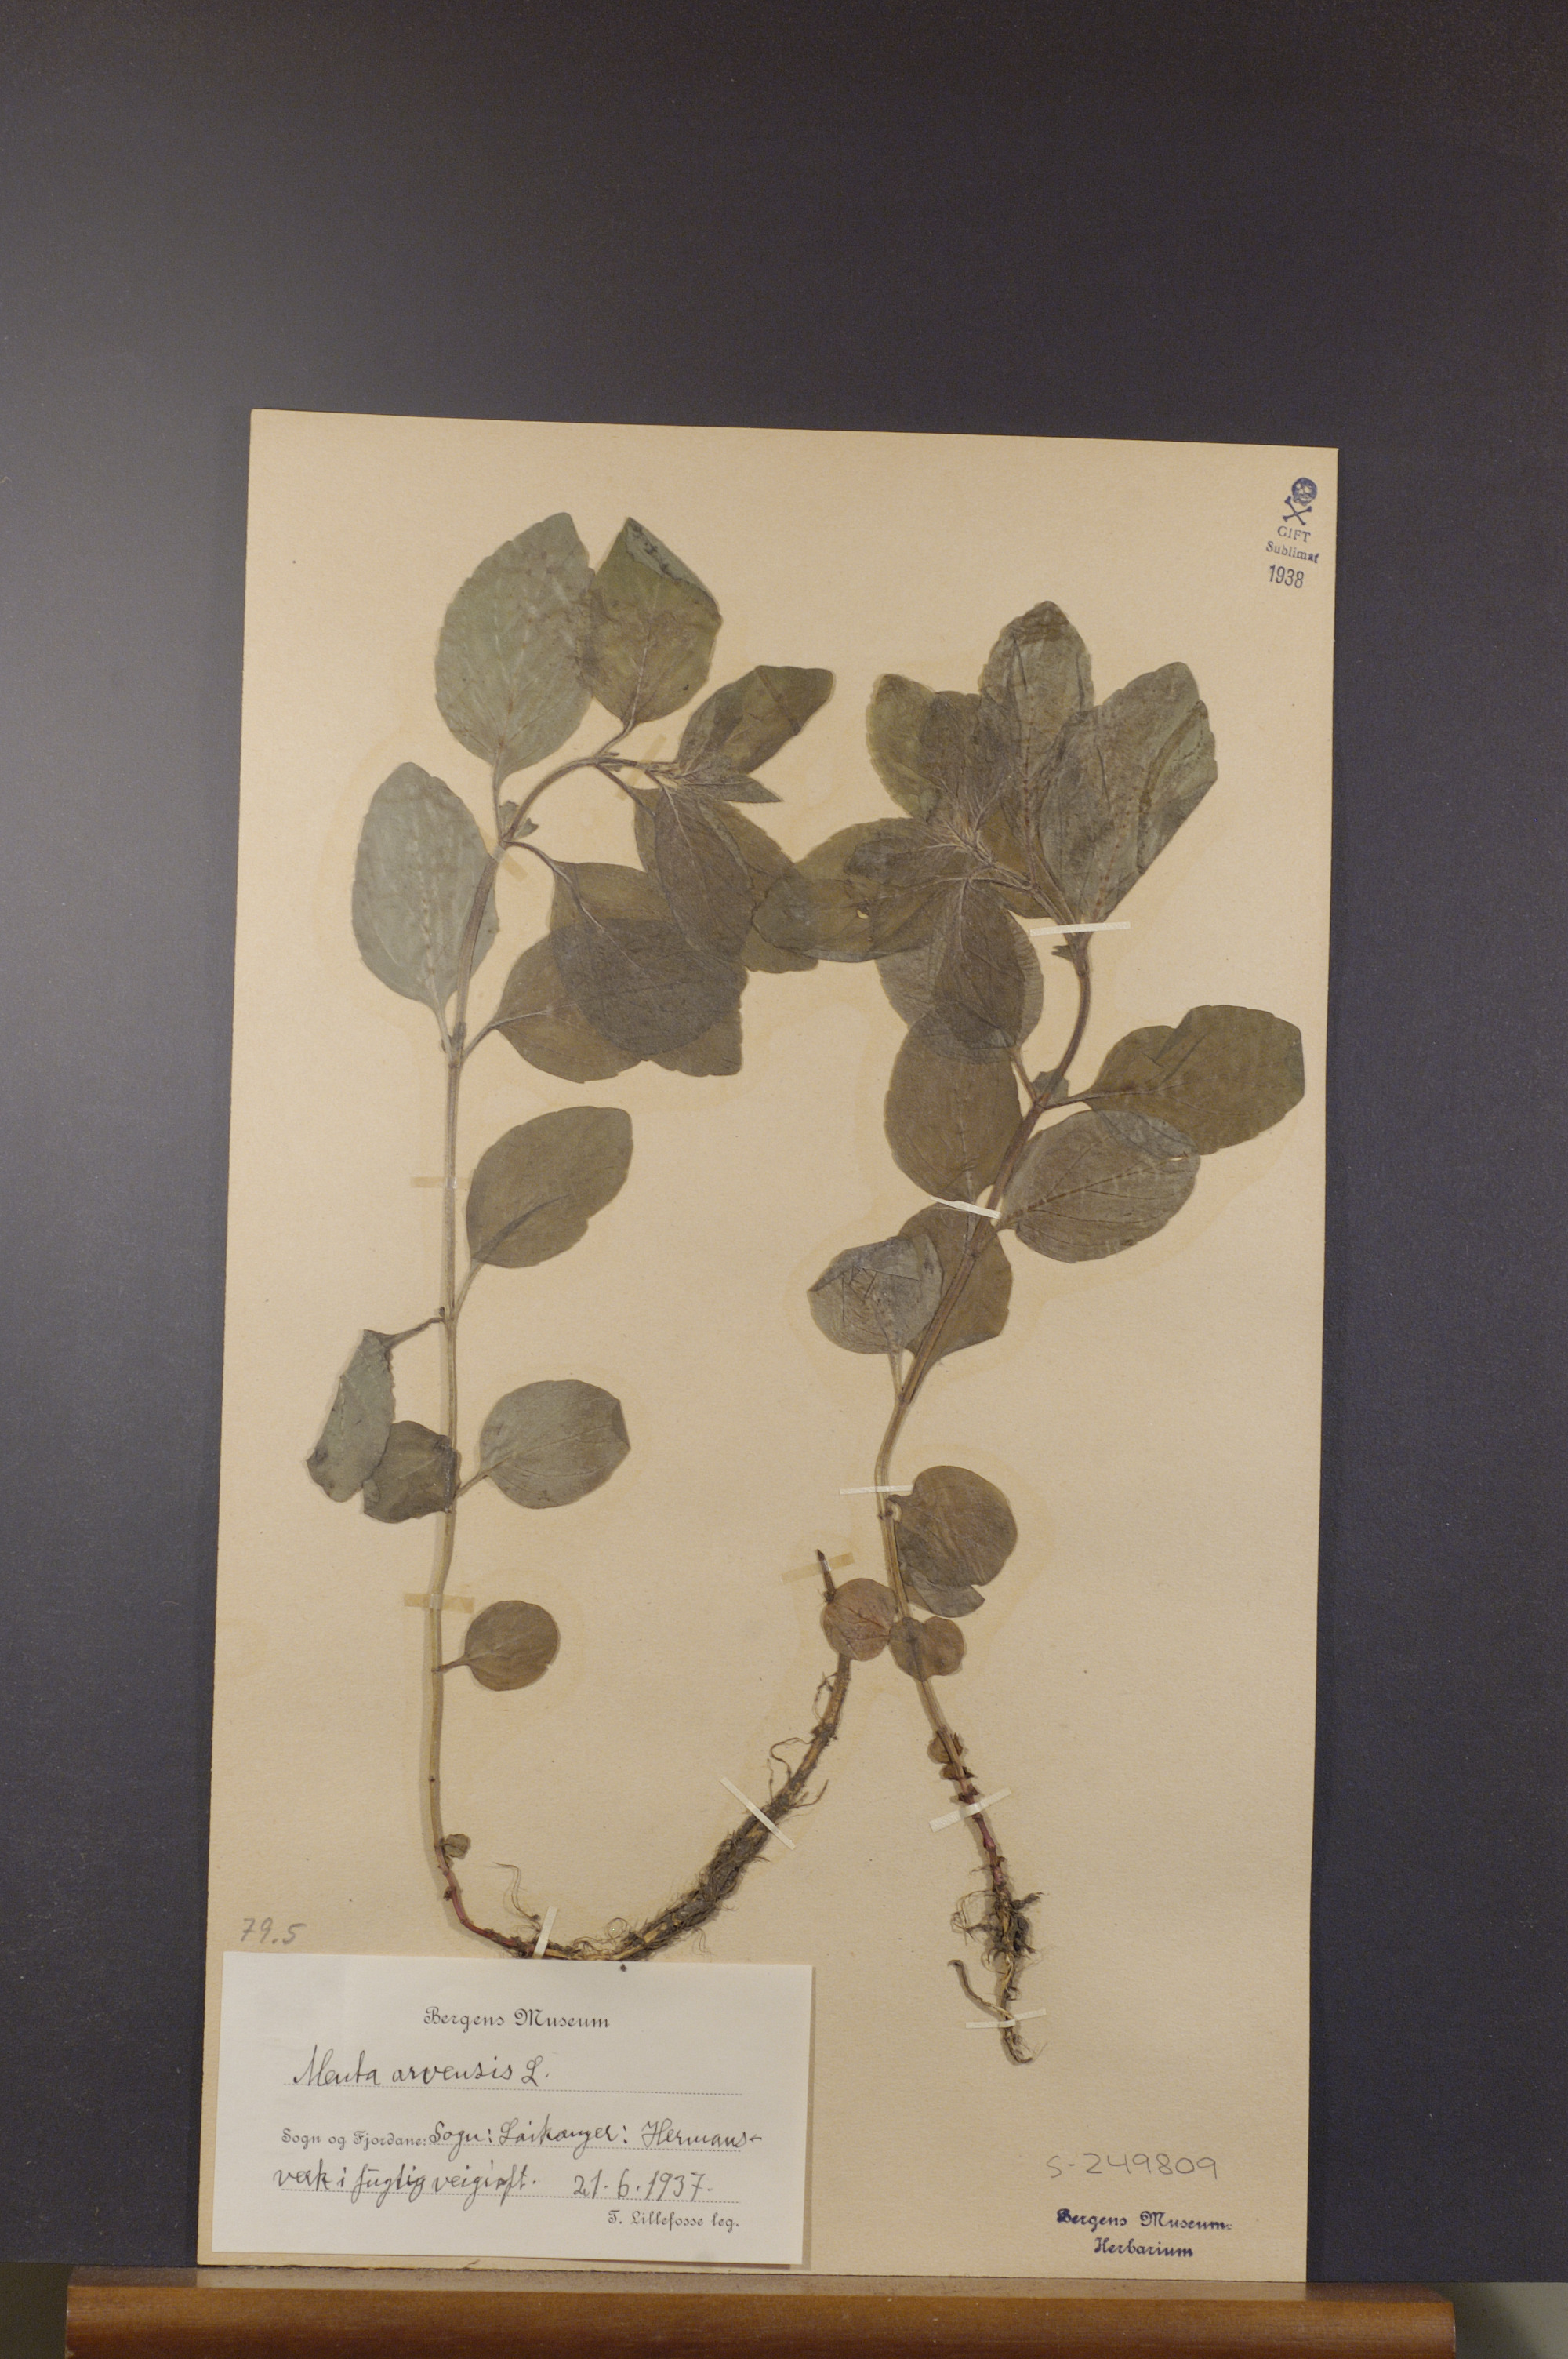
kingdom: Plantae
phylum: Tracheophyta
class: Magnoliopsida
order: Lamiales
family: Lamiaceae
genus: Mentha
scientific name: Mentha arvensis
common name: Corn mint
